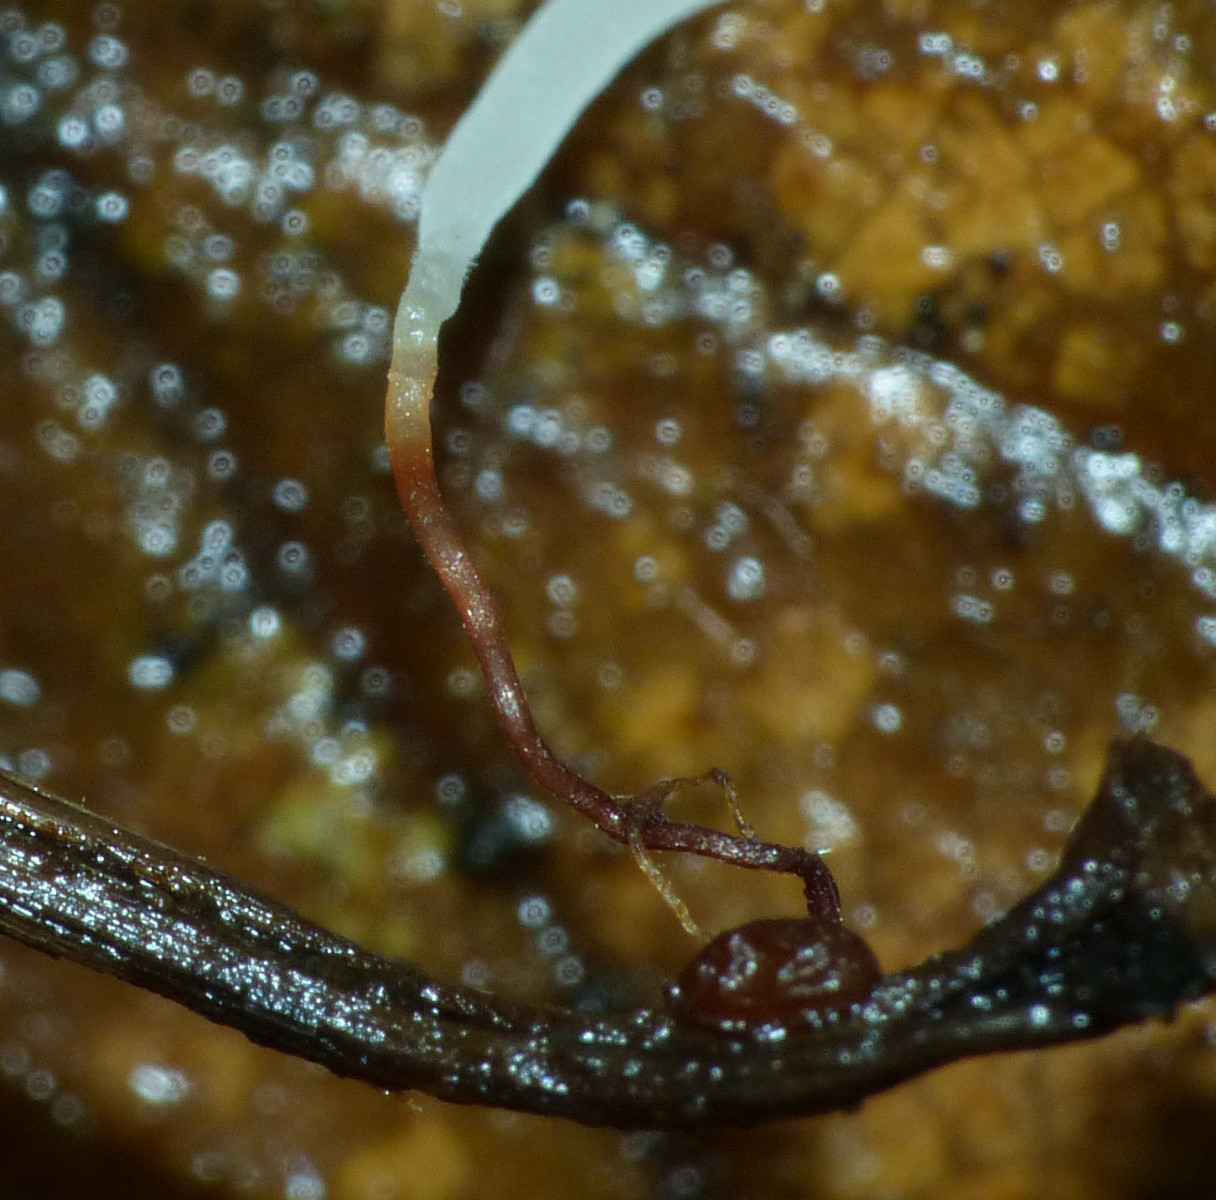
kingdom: Fungi
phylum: Basidiomycota
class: Agaricomycetes
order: Agaricales
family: Typhulaceae
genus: Typhula
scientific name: Typhula erythropus
